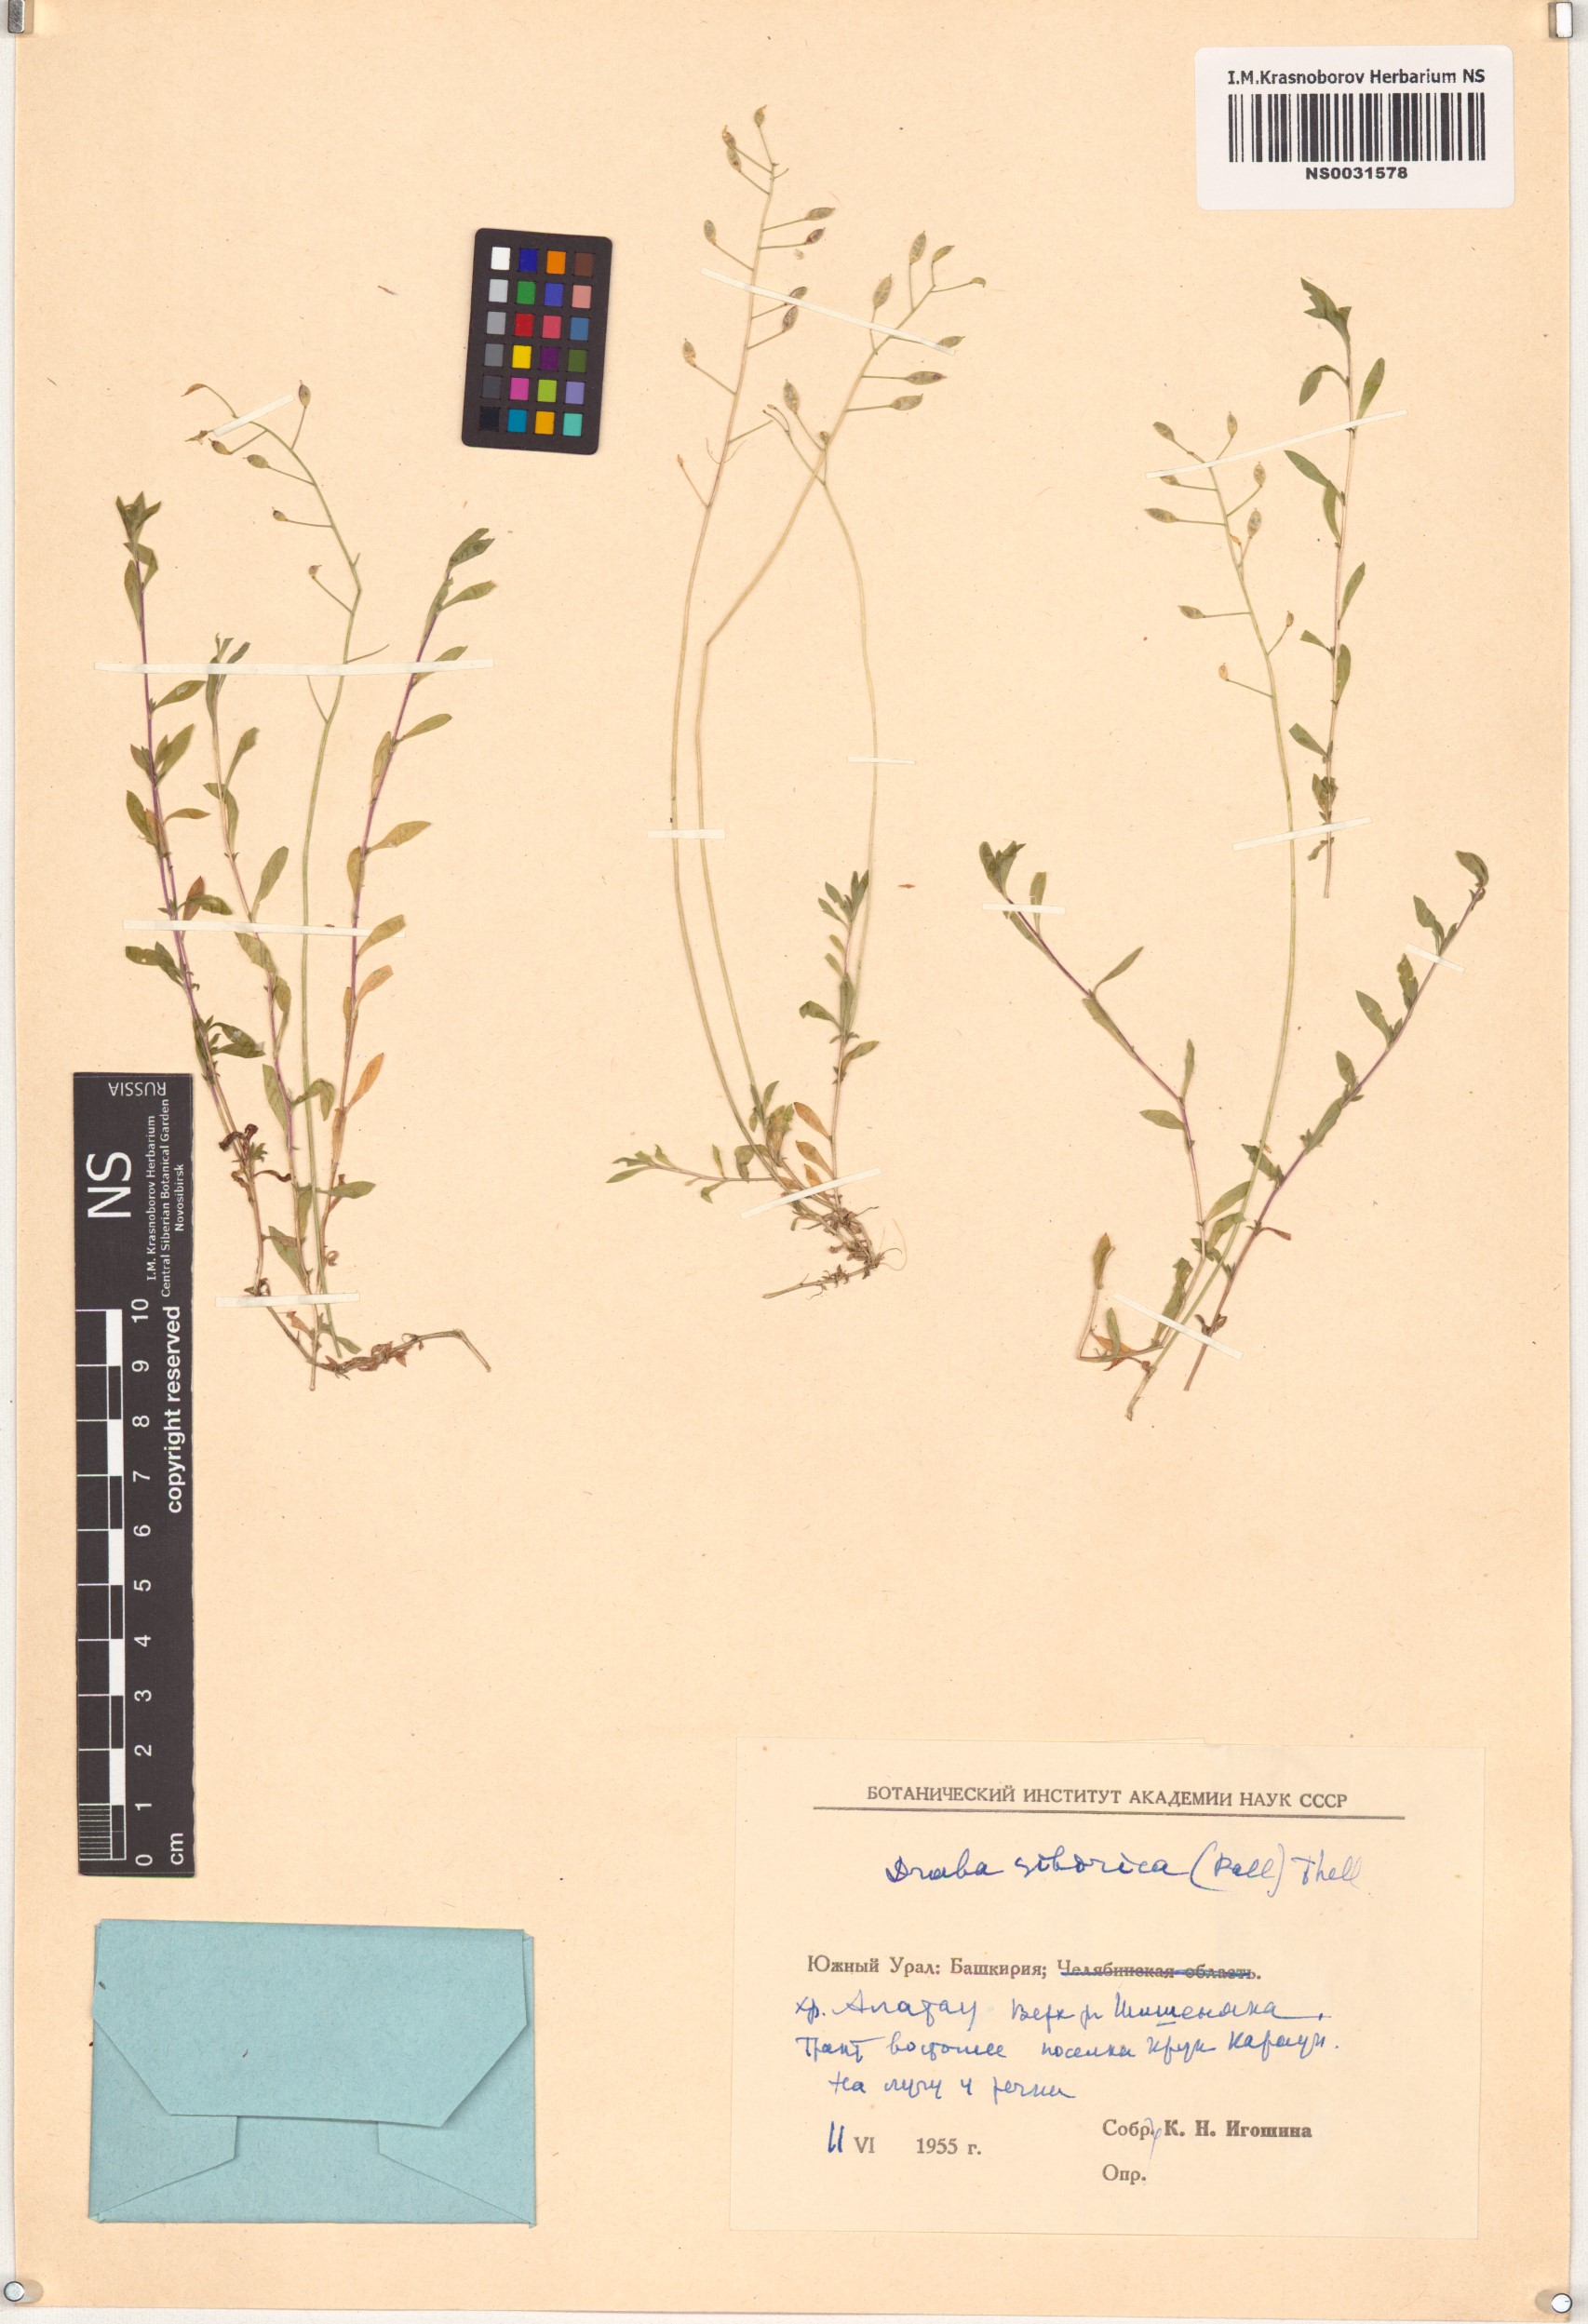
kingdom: Plantae
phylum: Tracheophyta
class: Magnoliopsida
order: Brassicales
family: Brassicaceae
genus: Draba
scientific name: Draba sibirica
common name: Siberian draba
